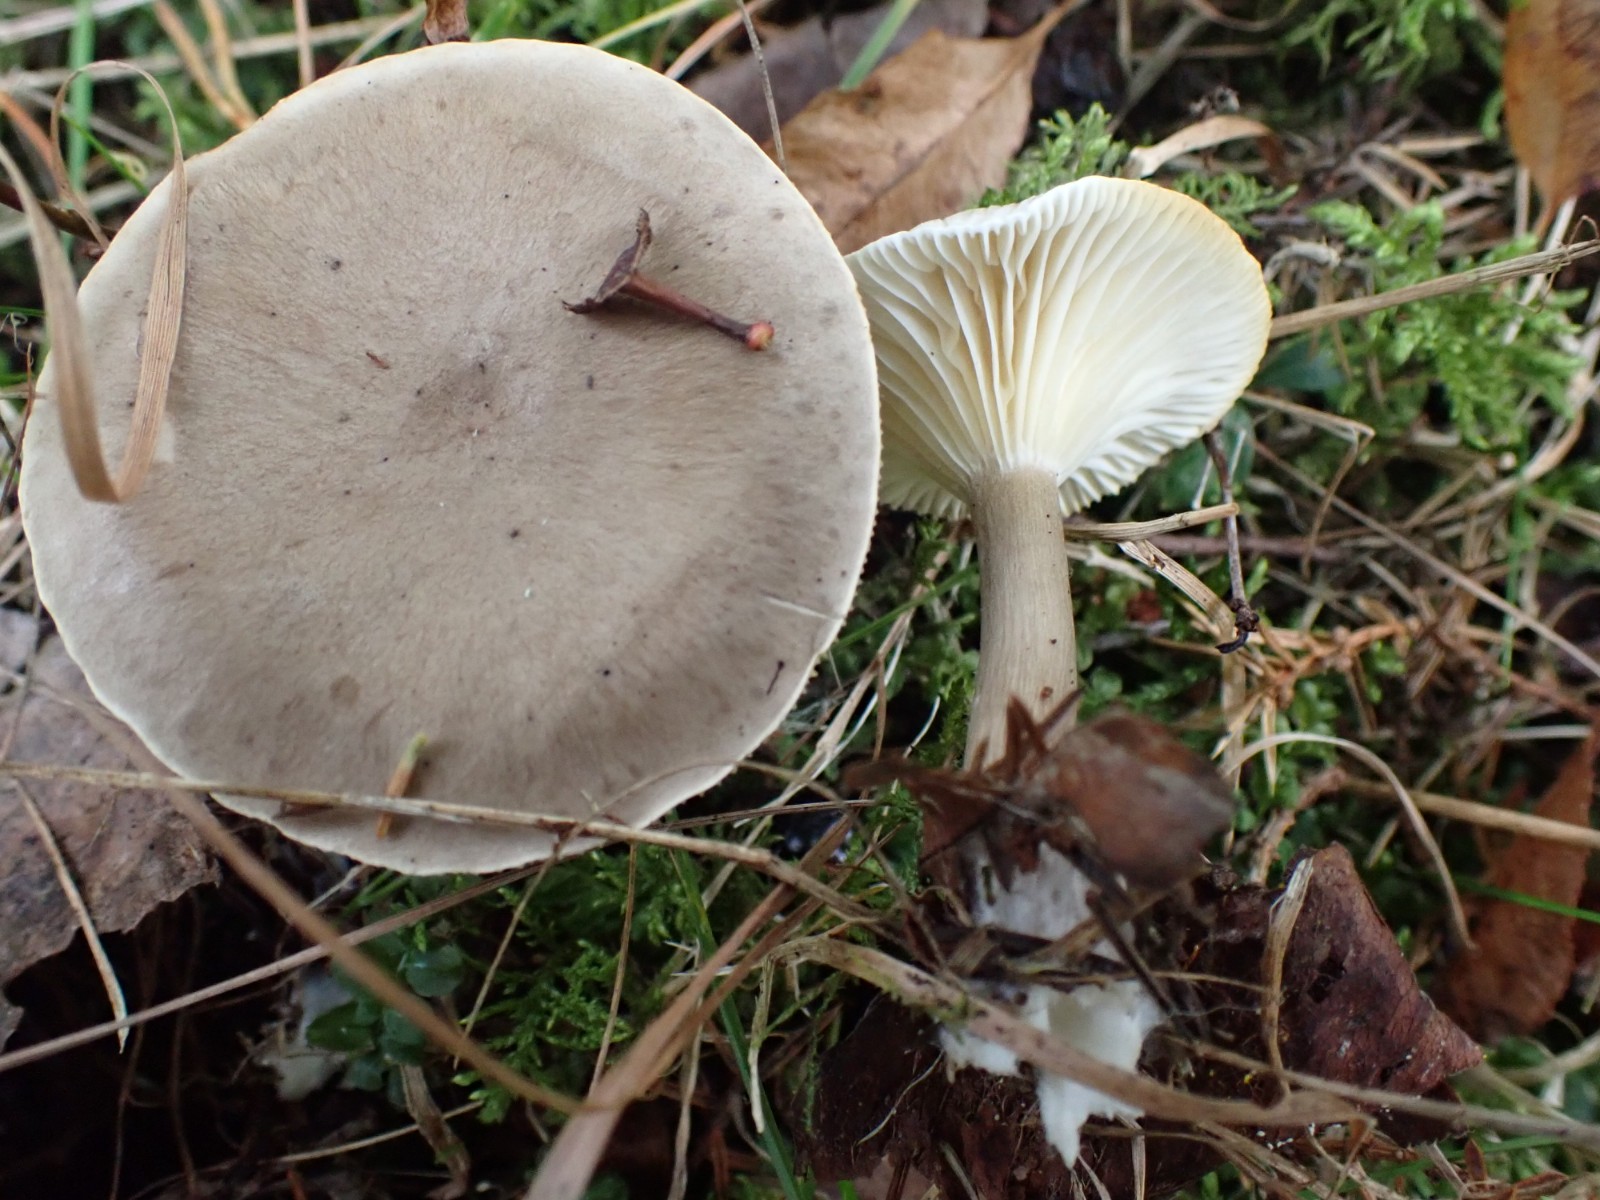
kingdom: Fungi
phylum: Basidiomycota
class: Agaricomycetes
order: Agaricales
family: Hygrophoraceae
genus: Ampulloclitocybe
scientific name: Ampulloclitocybe clavipes
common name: køllefod
